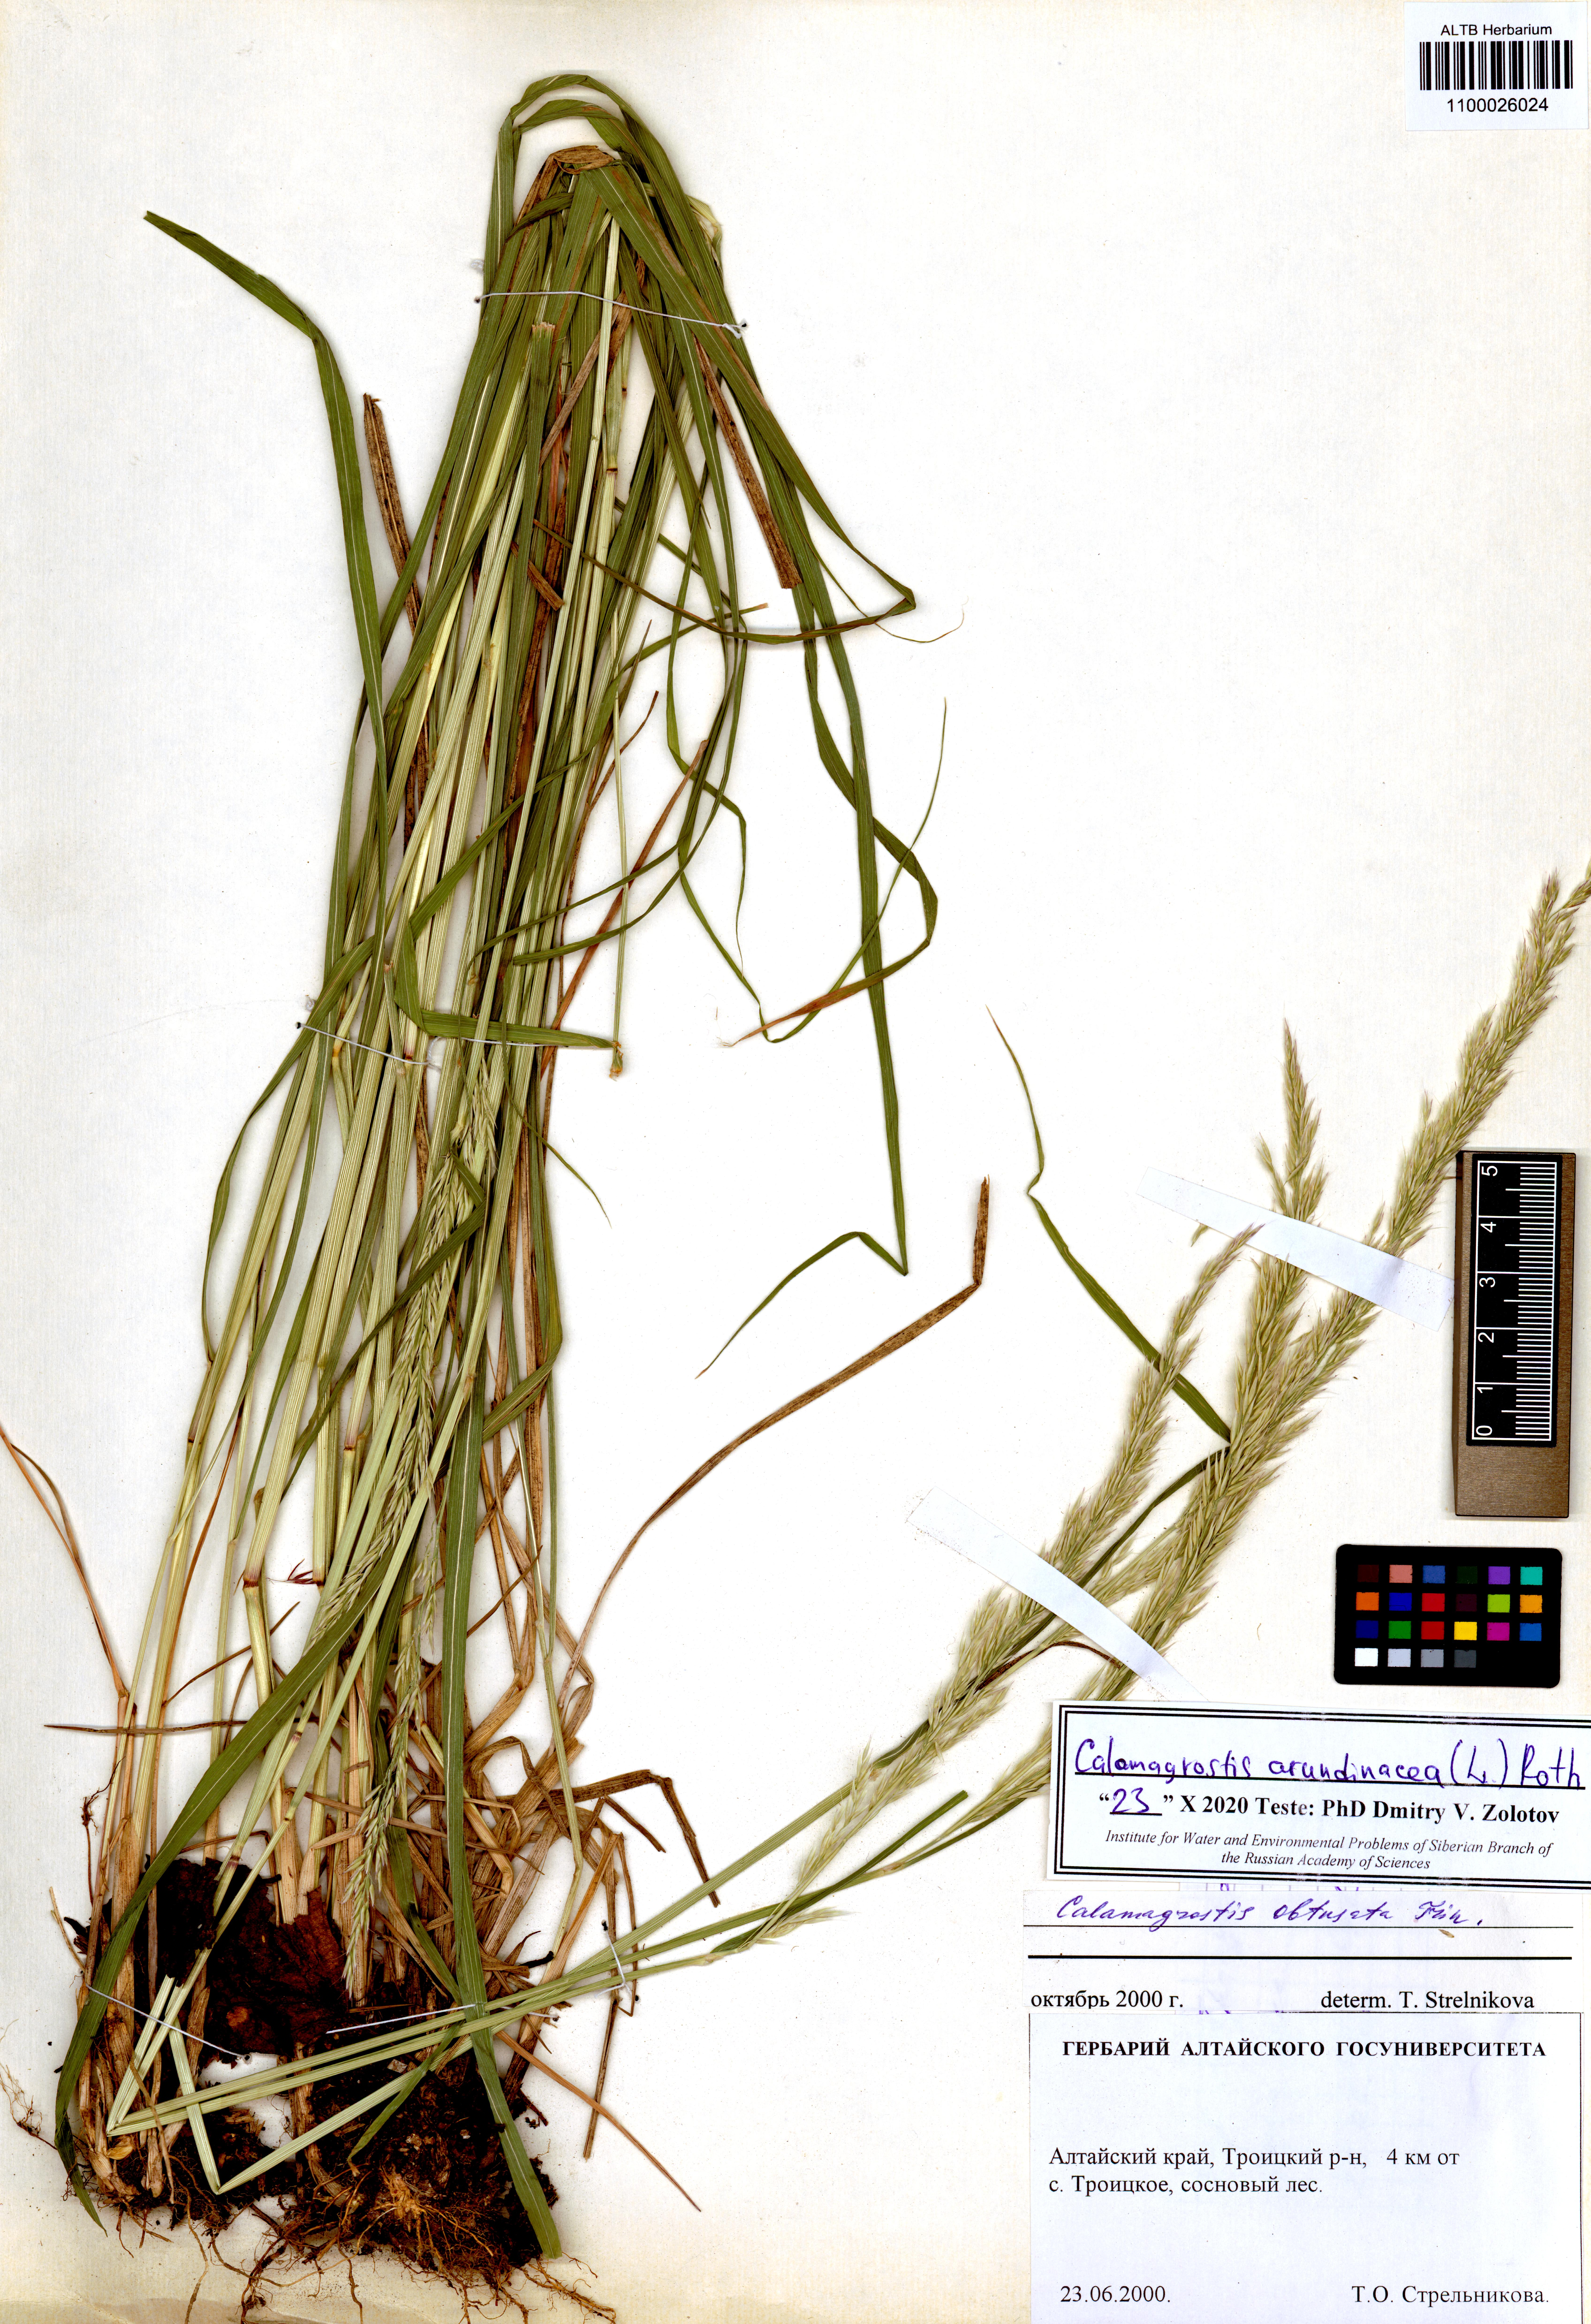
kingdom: Plantae
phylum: Tracheophyta
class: Liliopsida
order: Poales
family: Poaceae
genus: Calamagrostis
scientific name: Calamagrostis arundinacea
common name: Metskastik
